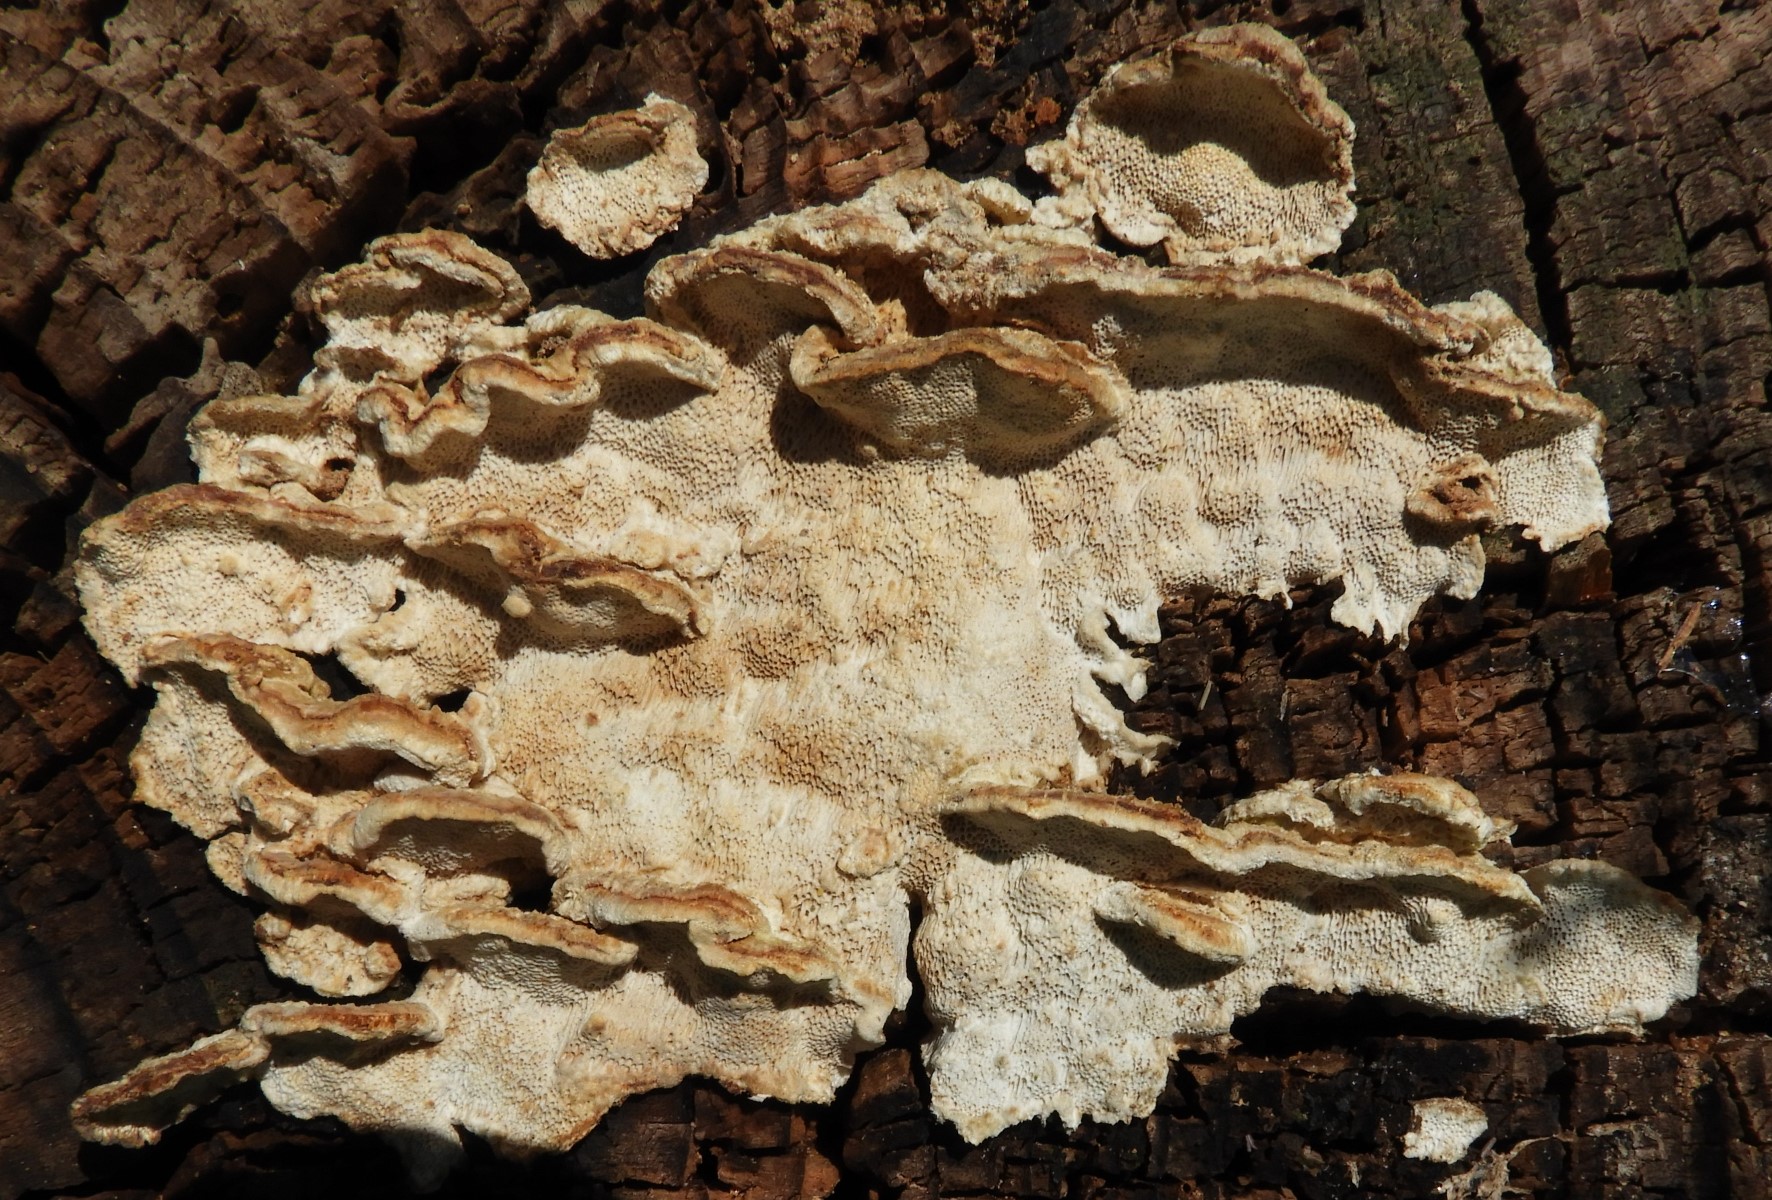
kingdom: Fungi
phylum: Basidiomycota
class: Agaricomycetes
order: Polyporales
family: Polyporaceae
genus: Trametes
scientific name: Trametes
